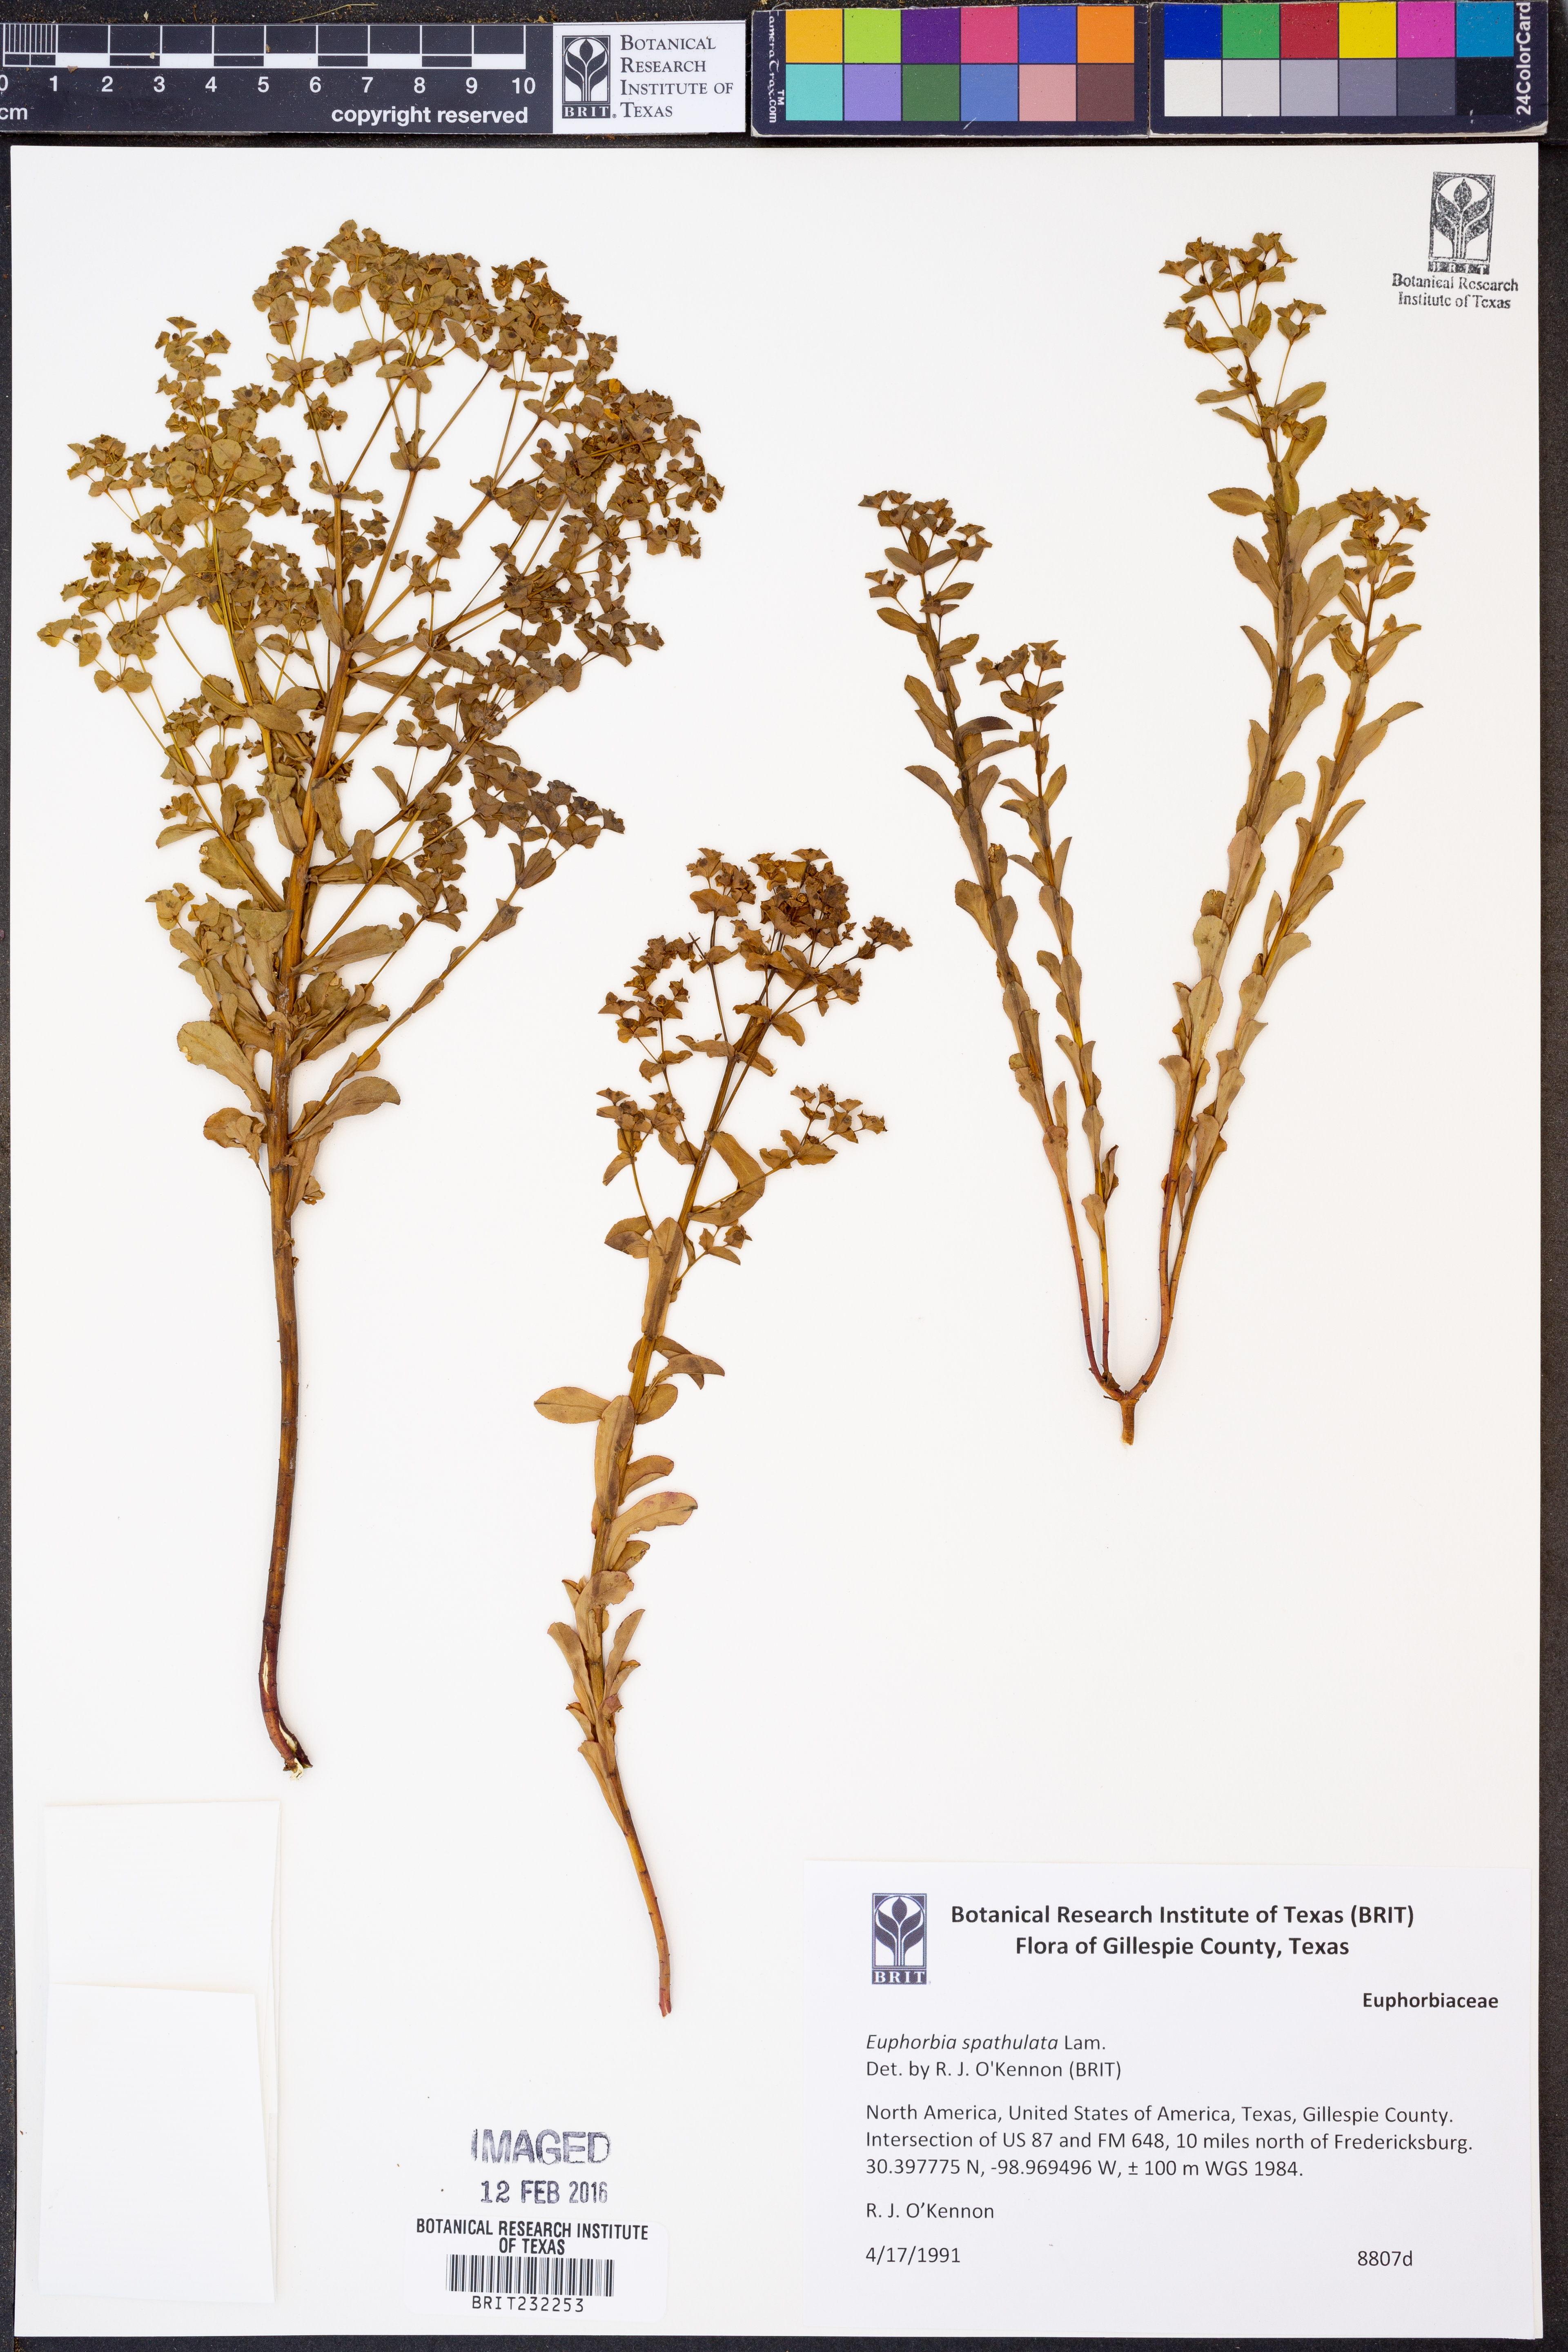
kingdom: Plantae
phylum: Tracheophyta
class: Magnoliopsida
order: Malpighiales
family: Euphorbiaceae
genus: Euphorbia
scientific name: Euphorbia spathulata
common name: Blunt spurge
